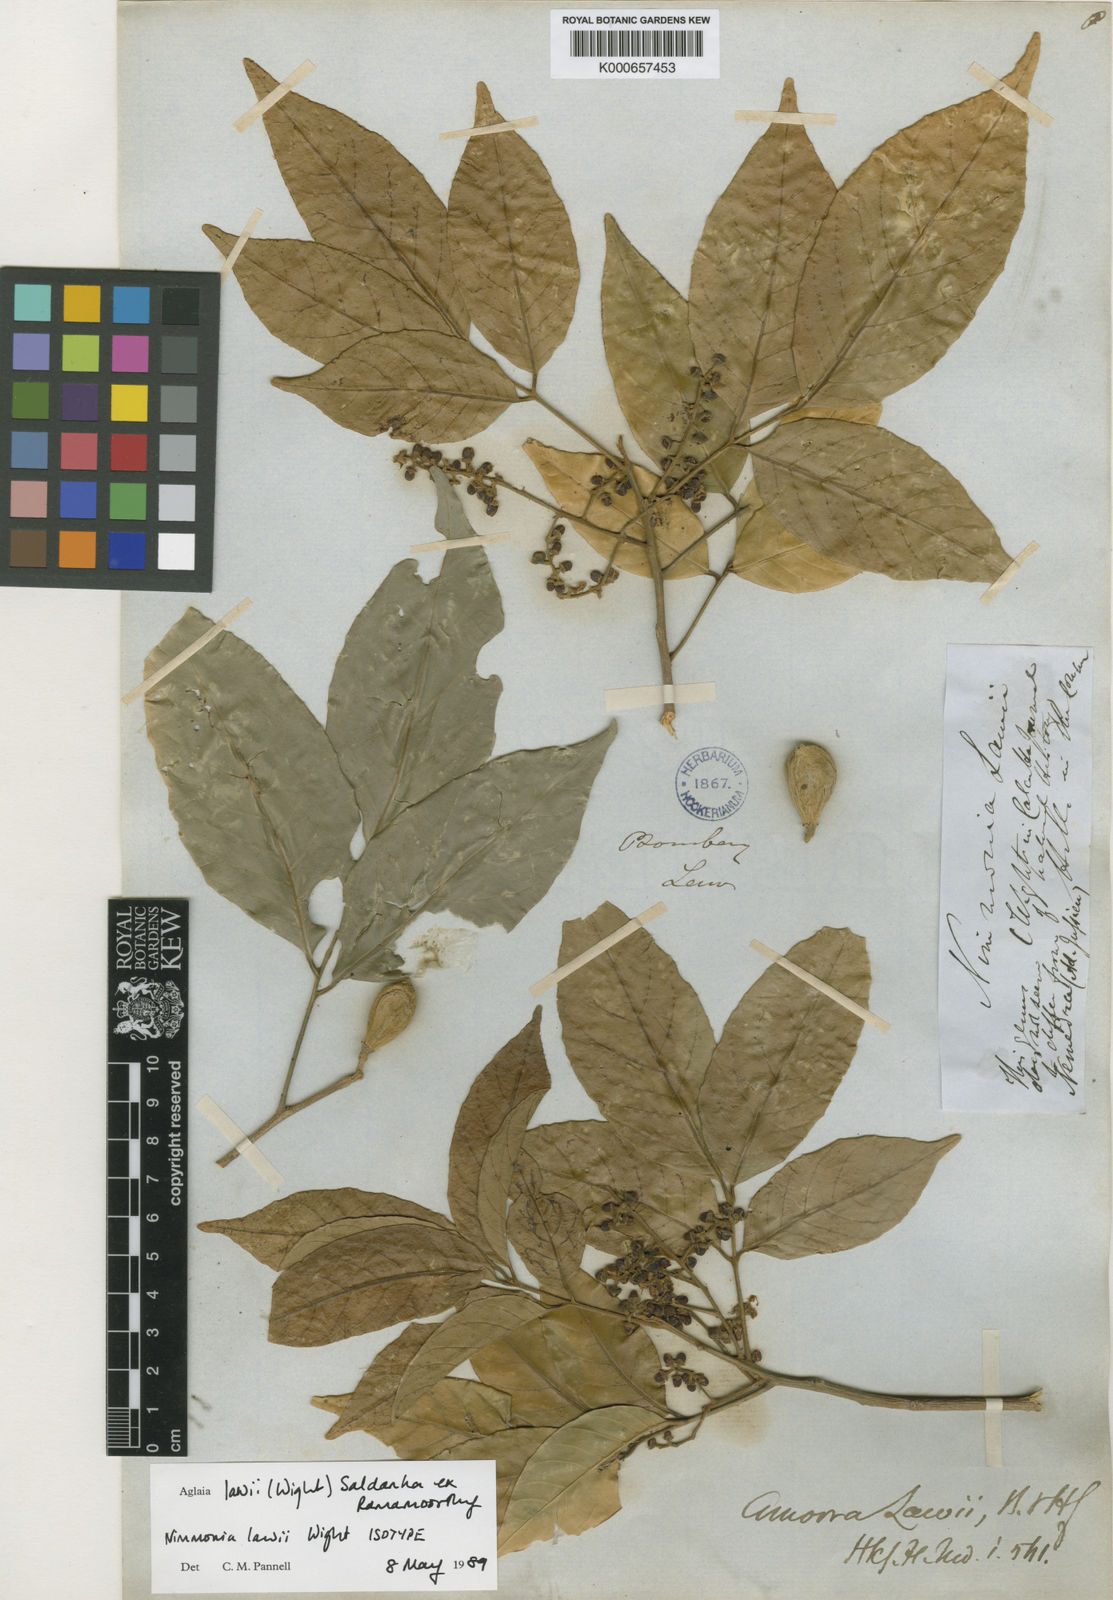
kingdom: Plantae
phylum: Tracheophyta
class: Magnoliopsida
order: Sapindales
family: Meliaceae
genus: Aglaia
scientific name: Aglaia
